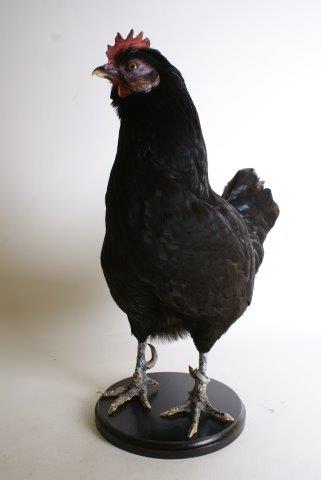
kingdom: Animalia
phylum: Chordata
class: Aves
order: Galliformes
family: Phasianidae
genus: Gallus
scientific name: Gallus gallus
